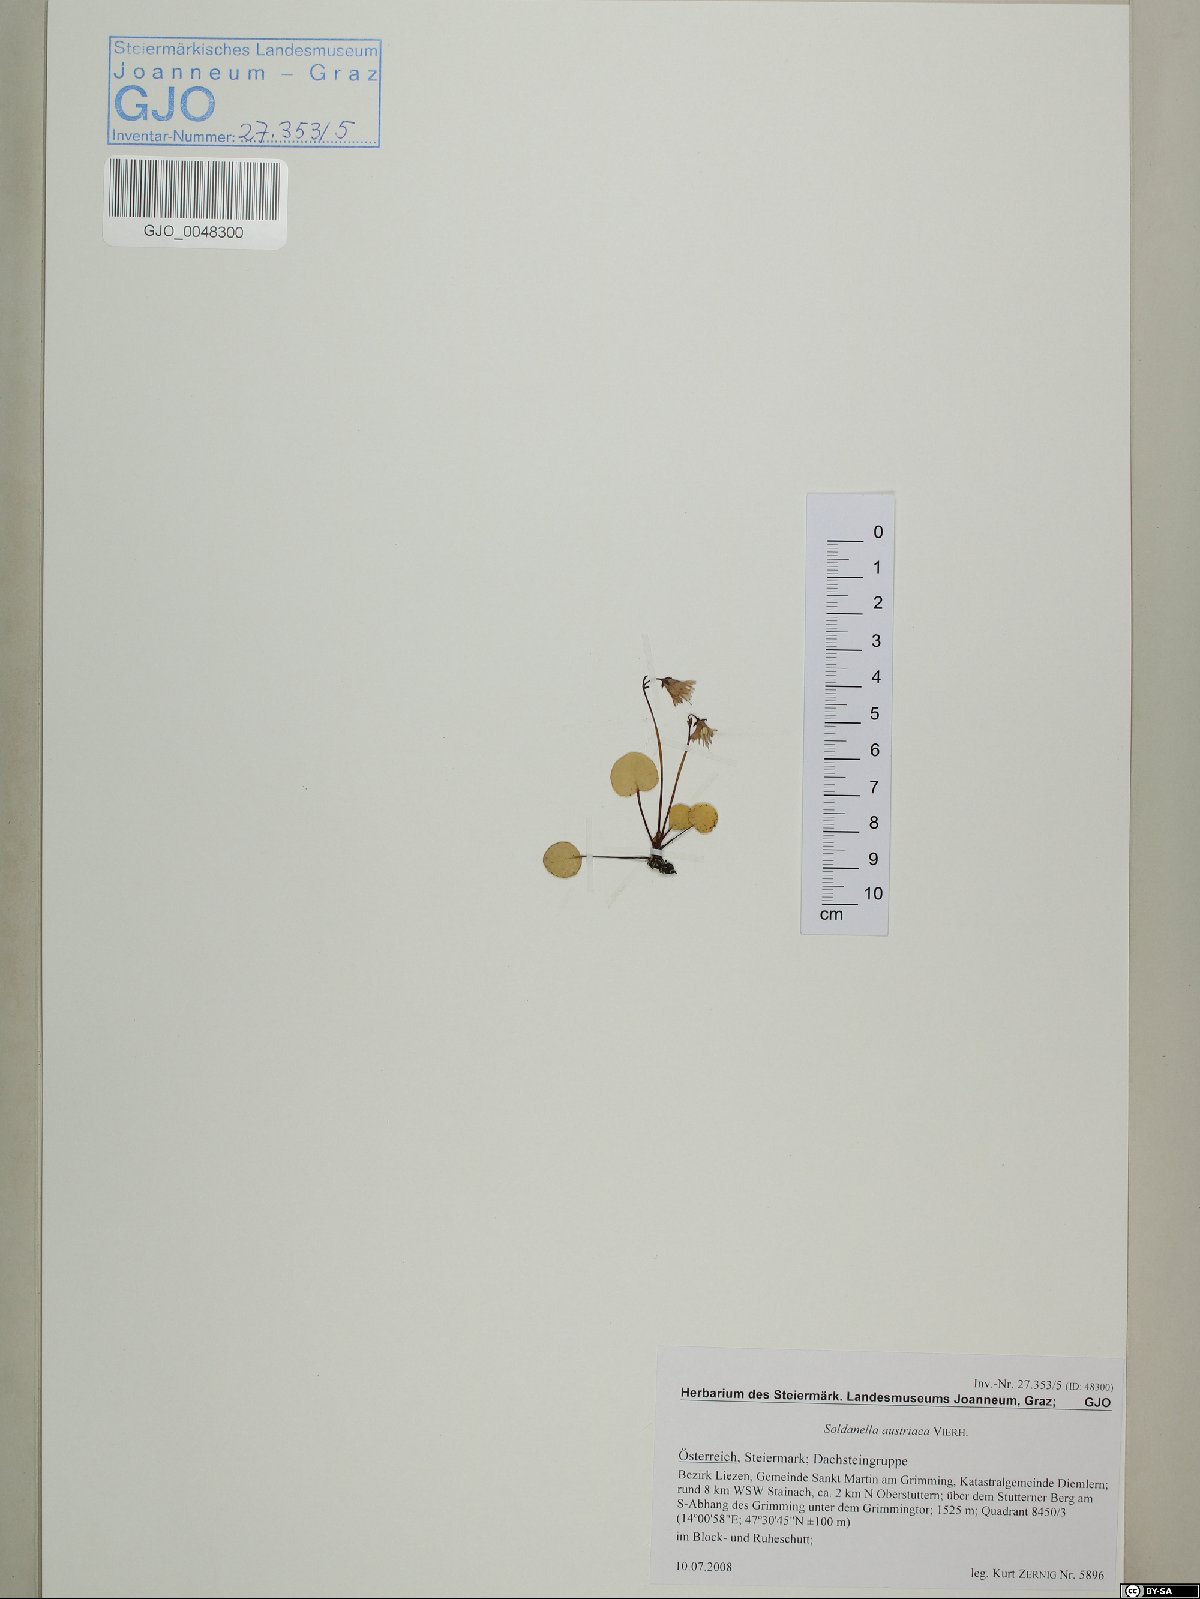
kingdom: Plantae
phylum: Tracheophyta
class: Magnoliopsida
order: Ericales
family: Primulaceae
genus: Soldanella
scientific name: Soldanella austriaca
